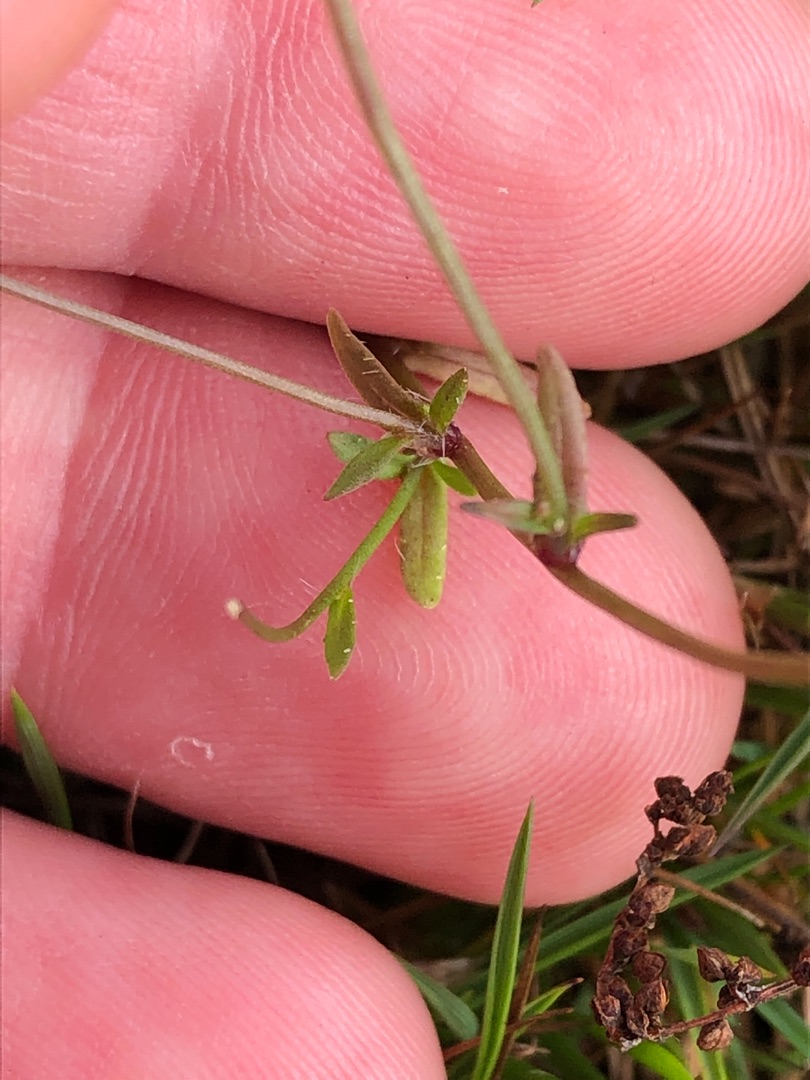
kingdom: Plantae
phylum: Tracheophyta
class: Magnoliopsida
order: Asterales
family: Campanulaceae
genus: Jasione
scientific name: Jasione montana
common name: Blåmunke
